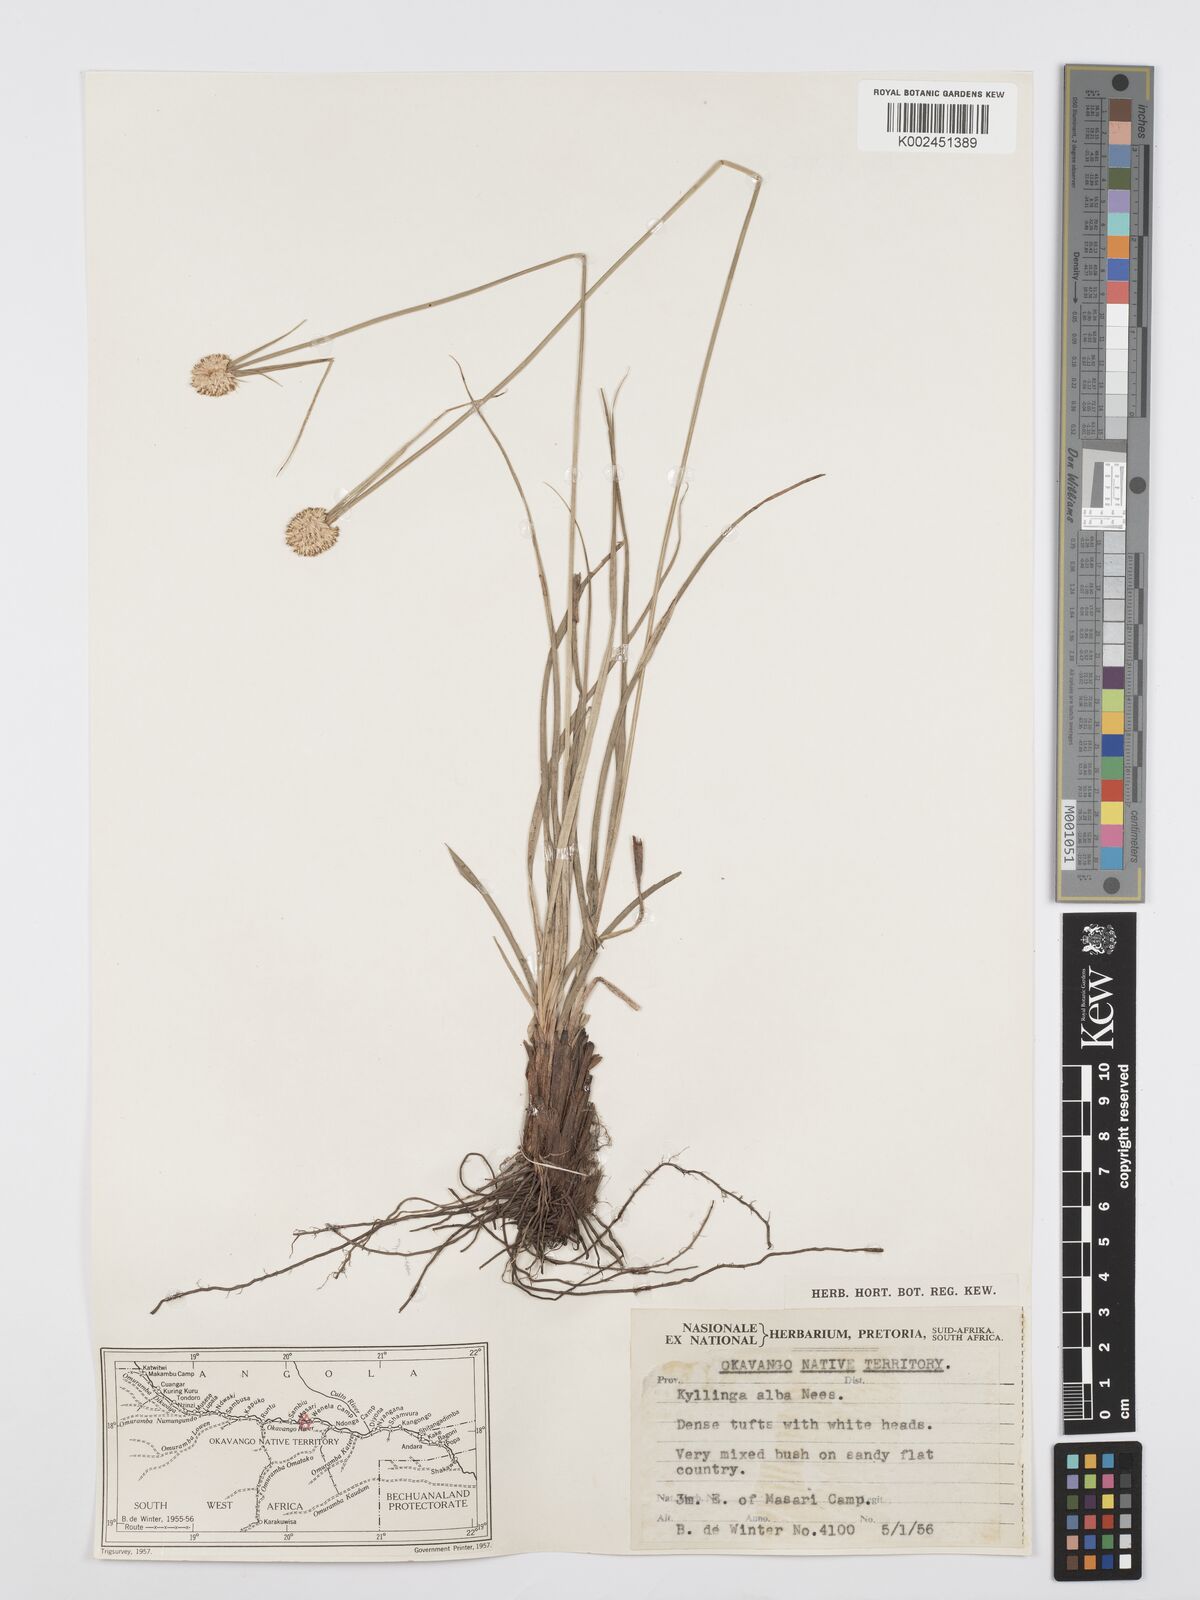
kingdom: Plantae
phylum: Tracheophyta
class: Liliopsida
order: Poales
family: Cyperaceae
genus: Cyperus
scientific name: Cyperus alatus
